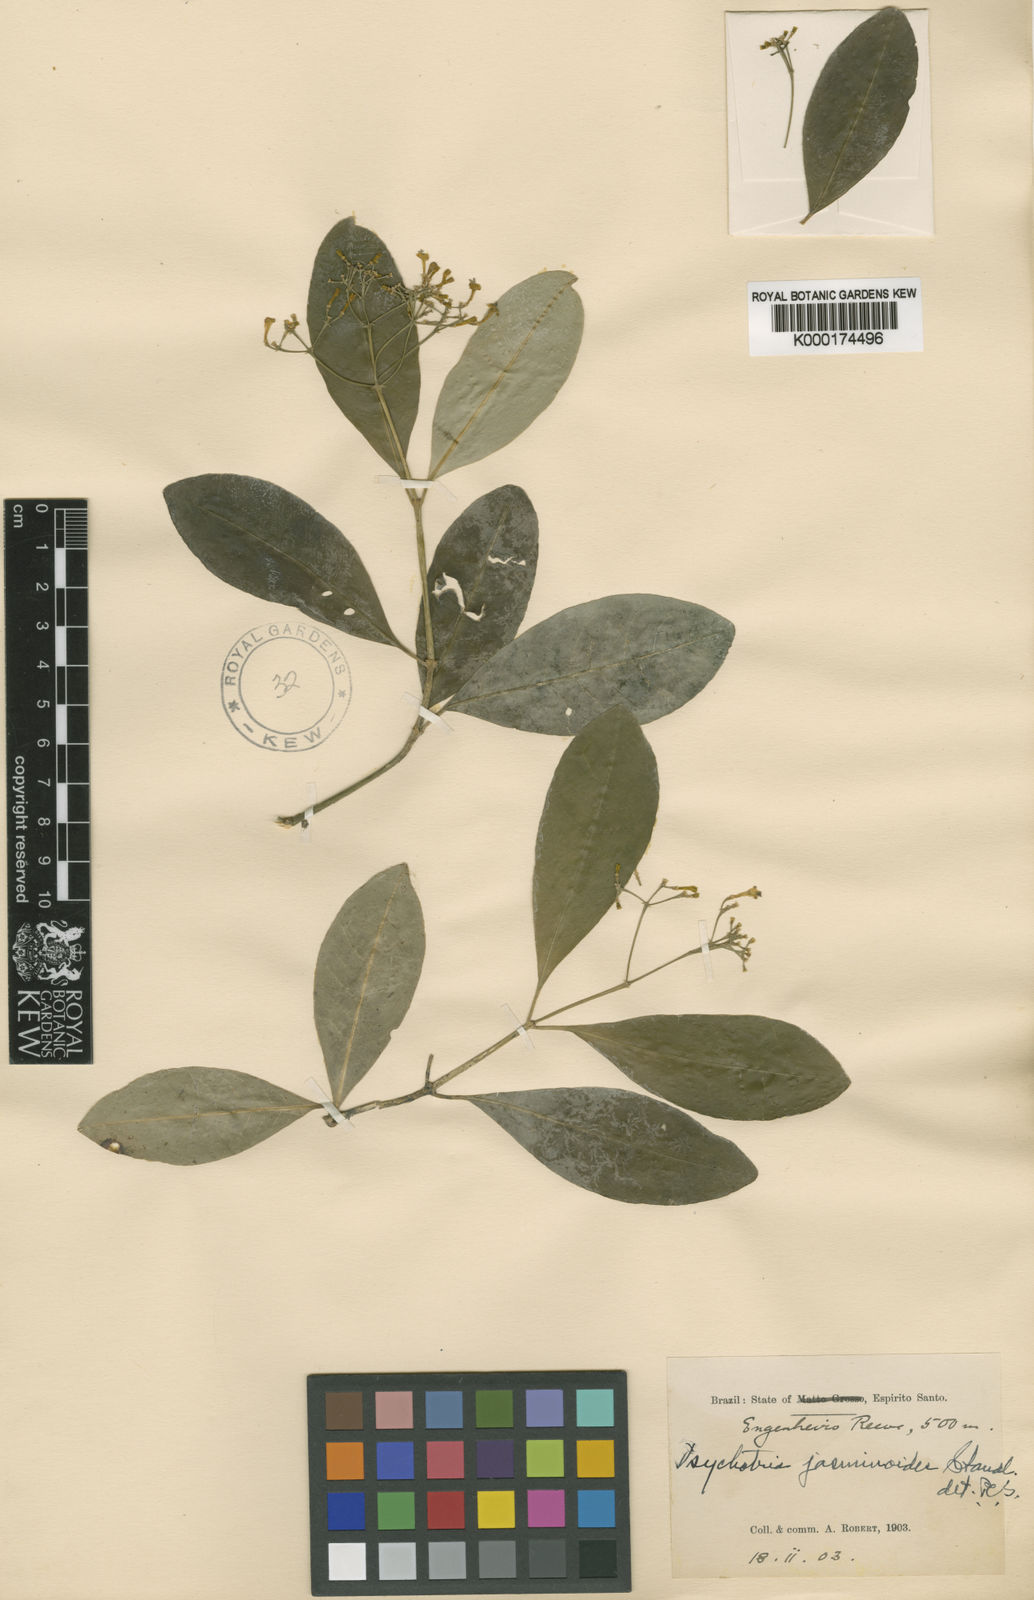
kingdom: Plantae
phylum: Tracheophyta
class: Magnoliopsida
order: Gentianales
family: Rubiaceae
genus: Psychotria
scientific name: Psychotria jasminoides
